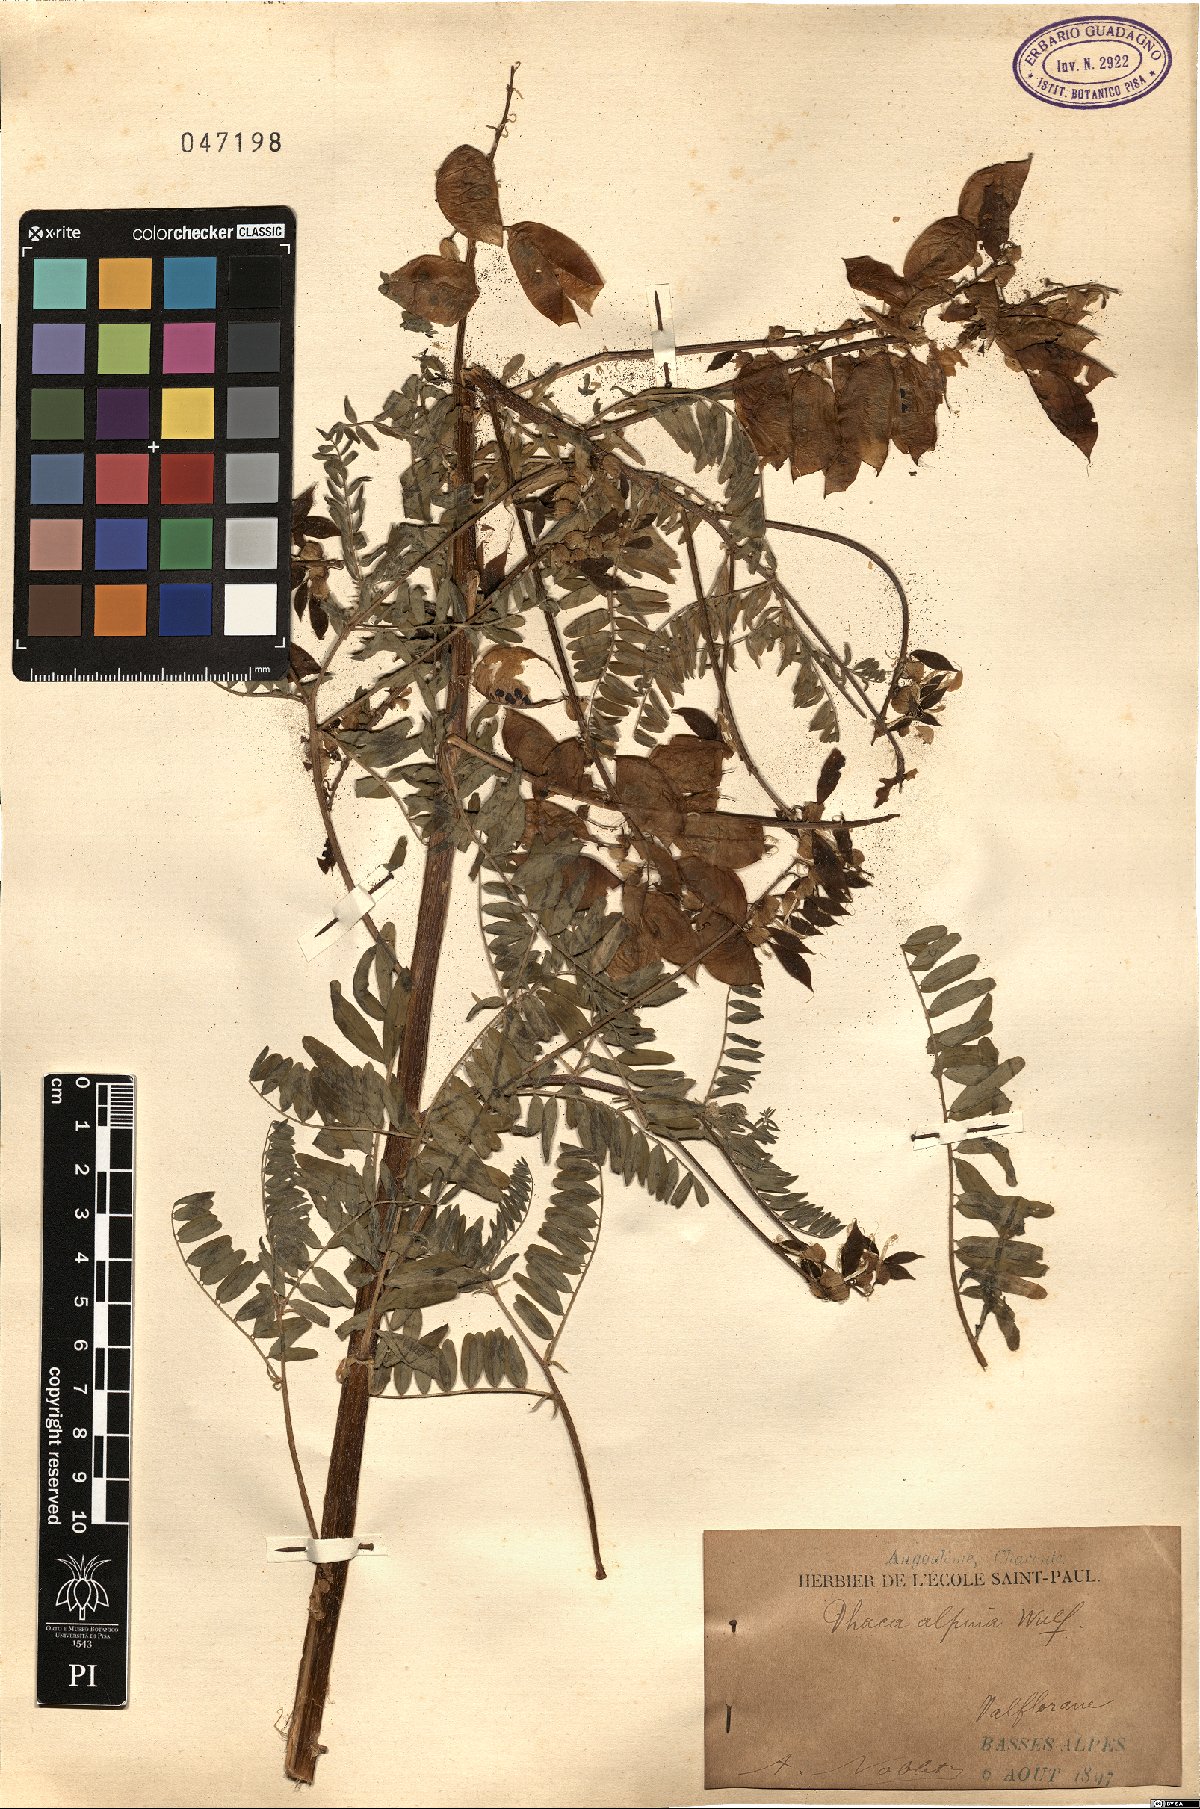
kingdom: Plantae
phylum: Tracheophyta
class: Magnoliopsida
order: Fabales
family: Fabaceae
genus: Astragalus
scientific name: Astragalus penduliflorus
